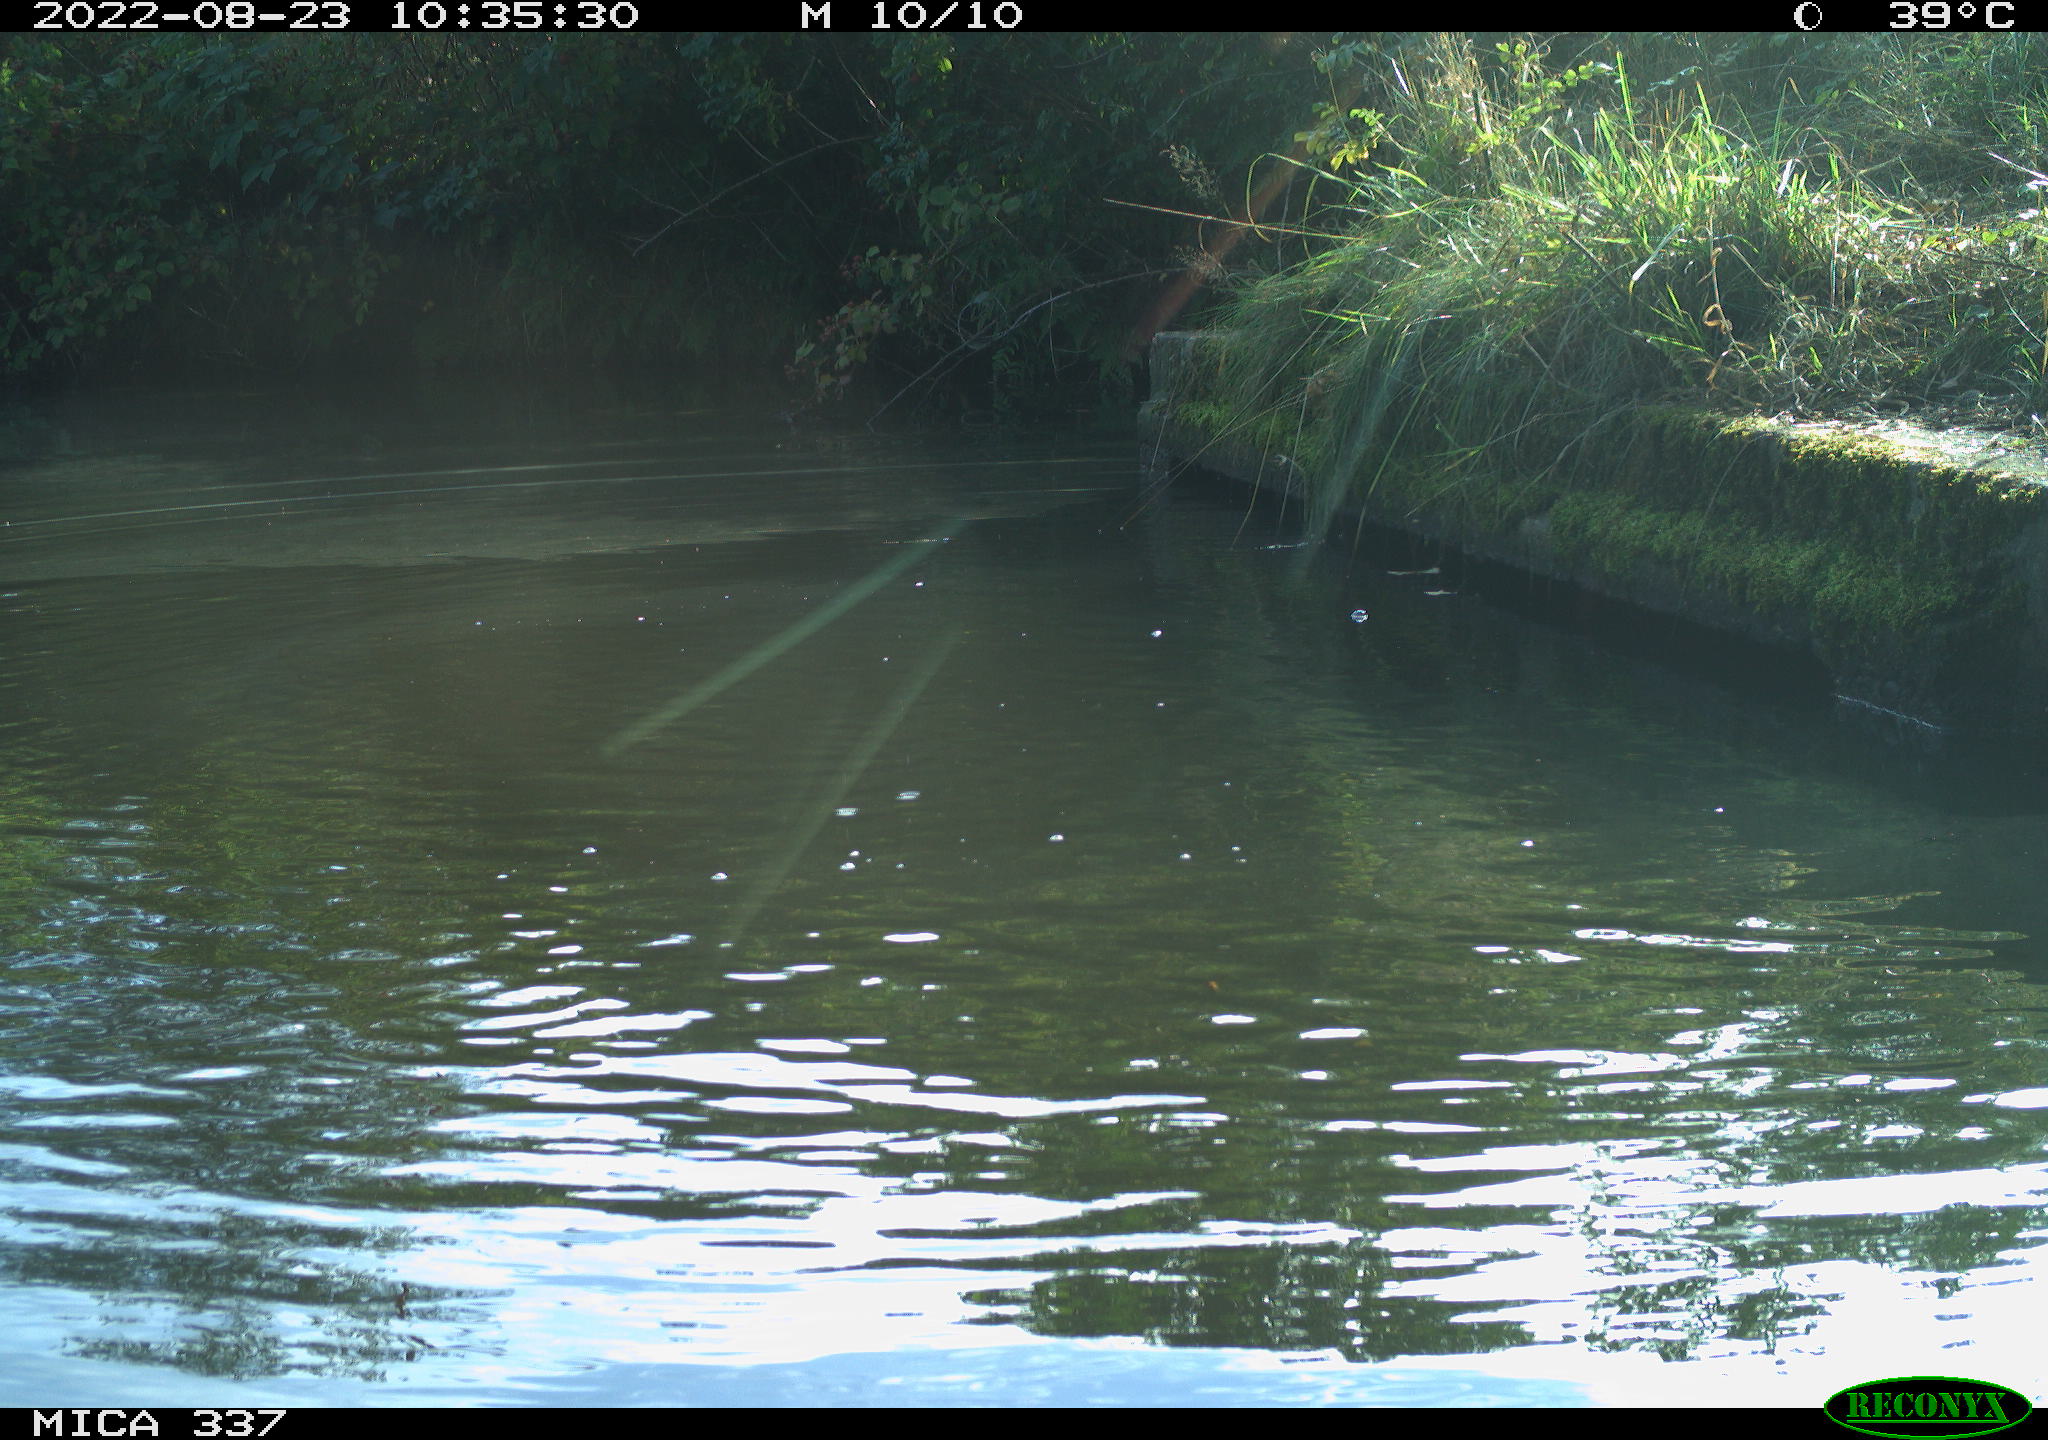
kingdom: Animalia
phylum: Chordata
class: Aves
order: Anseriformes
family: Anatidae
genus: Anas
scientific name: Anas platyrhynchos
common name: Mallard
